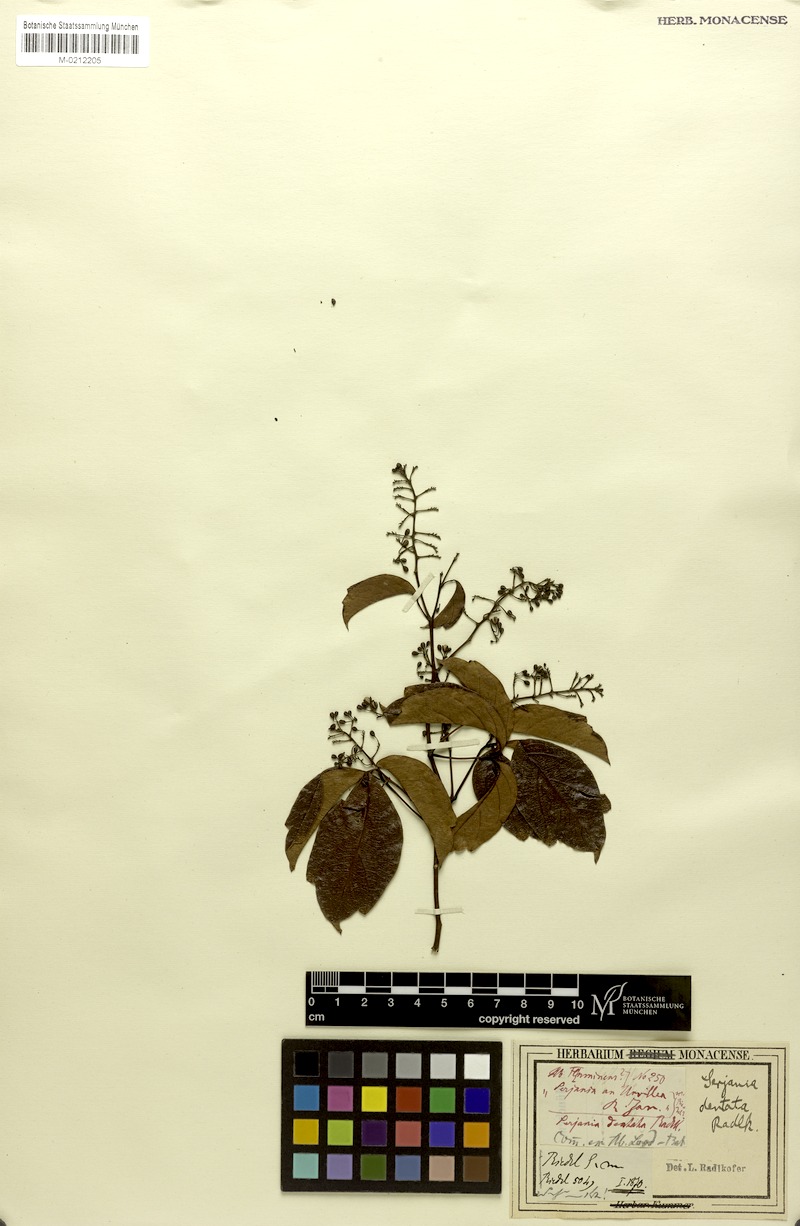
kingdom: Plantae
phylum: Tracheophyta
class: Magnoliopsida
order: Sapindales
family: Sapindaceae
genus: Serjania
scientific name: Serjania dentata
